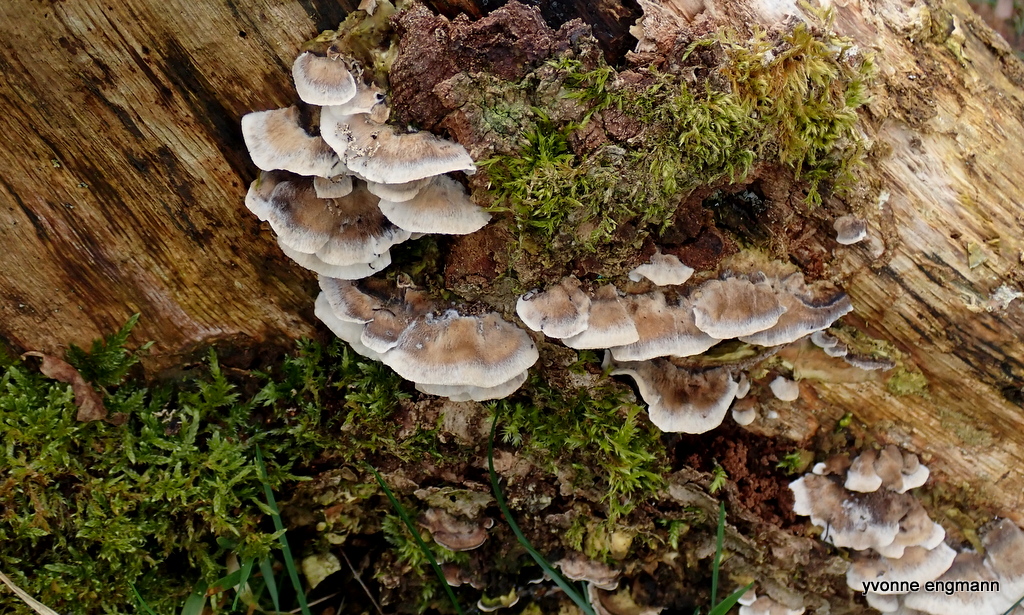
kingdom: Fungi
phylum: Basidiomycota
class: Agaricomycetes
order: Polyporales
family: Phanerochaetaceae
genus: Bjerkandera
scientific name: Bjerkandera adusta
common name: sveden sodporesvamp
